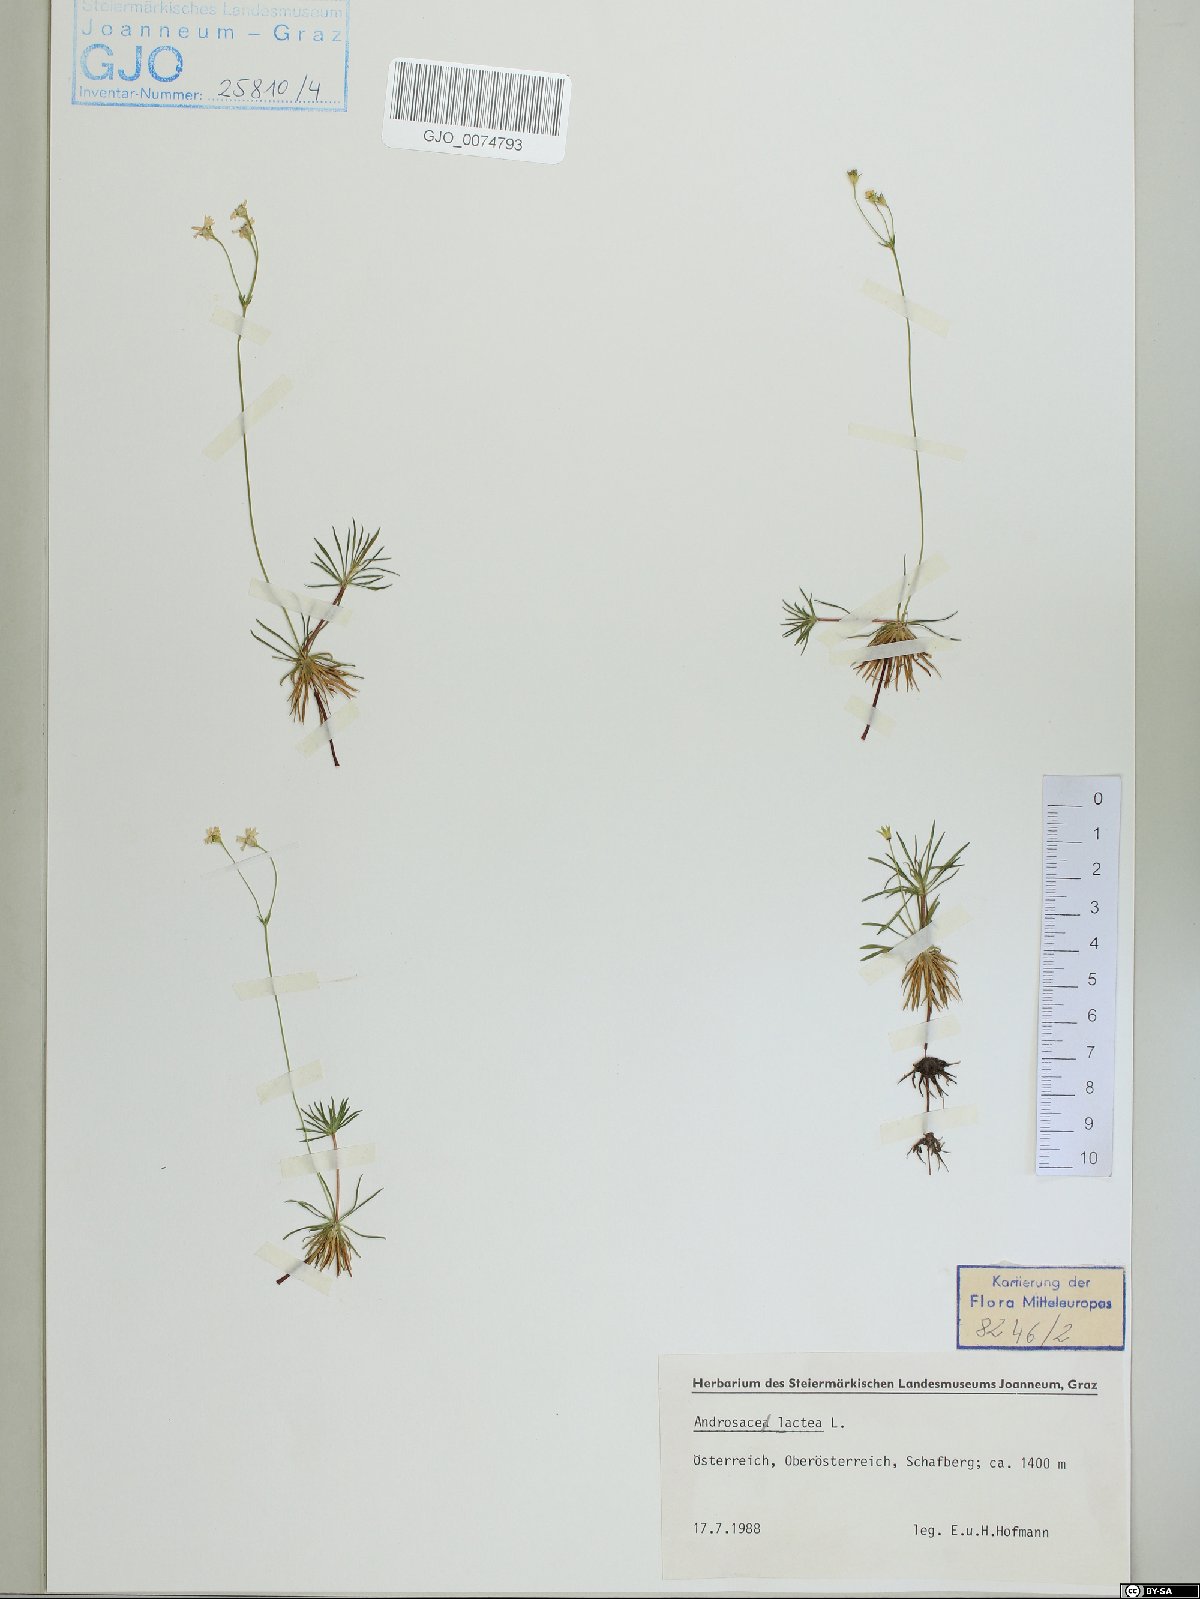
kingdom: Plantae
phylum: Tracheophyta
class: Magnoliopsida
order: Ericales
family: Primulaceae
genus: Androsace
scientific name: Androsace lactea
